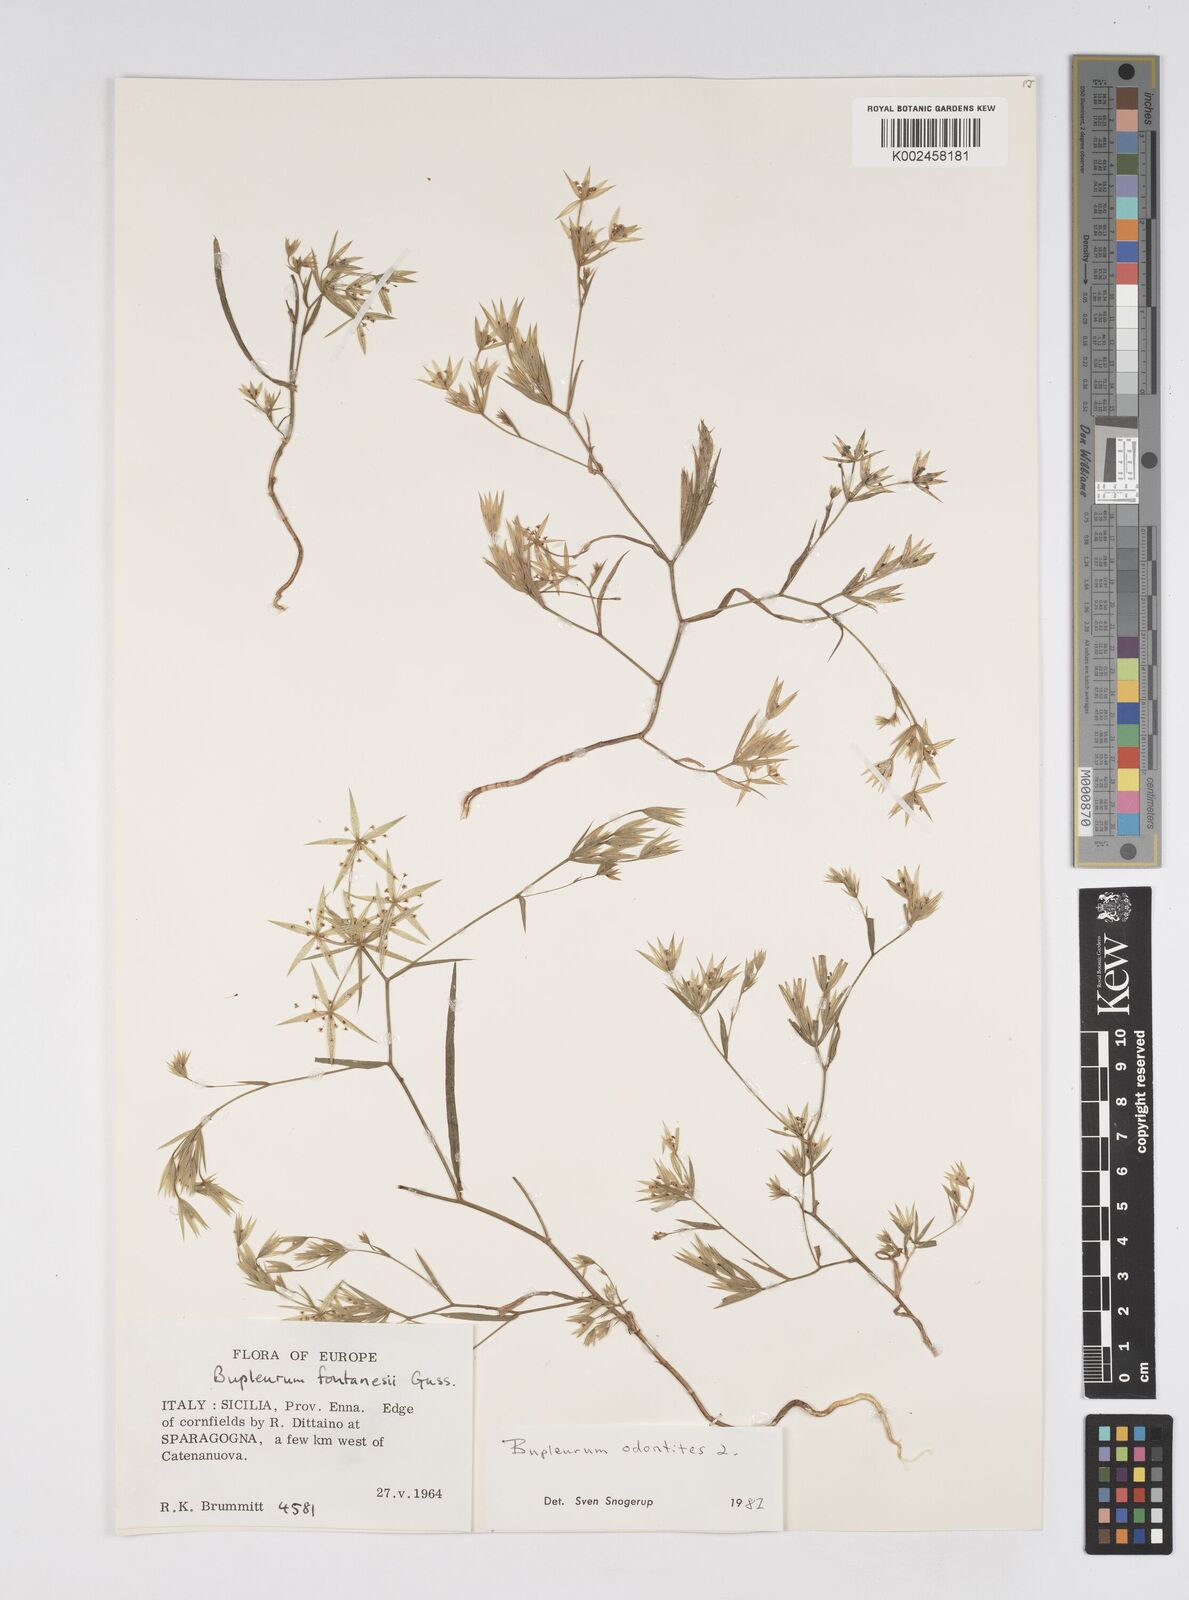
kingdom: Plantae
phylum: Tracheophyta
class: Magnoliopsida
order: Apiales
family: Apiaceae
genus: Bupleurum
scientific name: Bupleurum odontites
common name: Narrowleaf thorow wax
